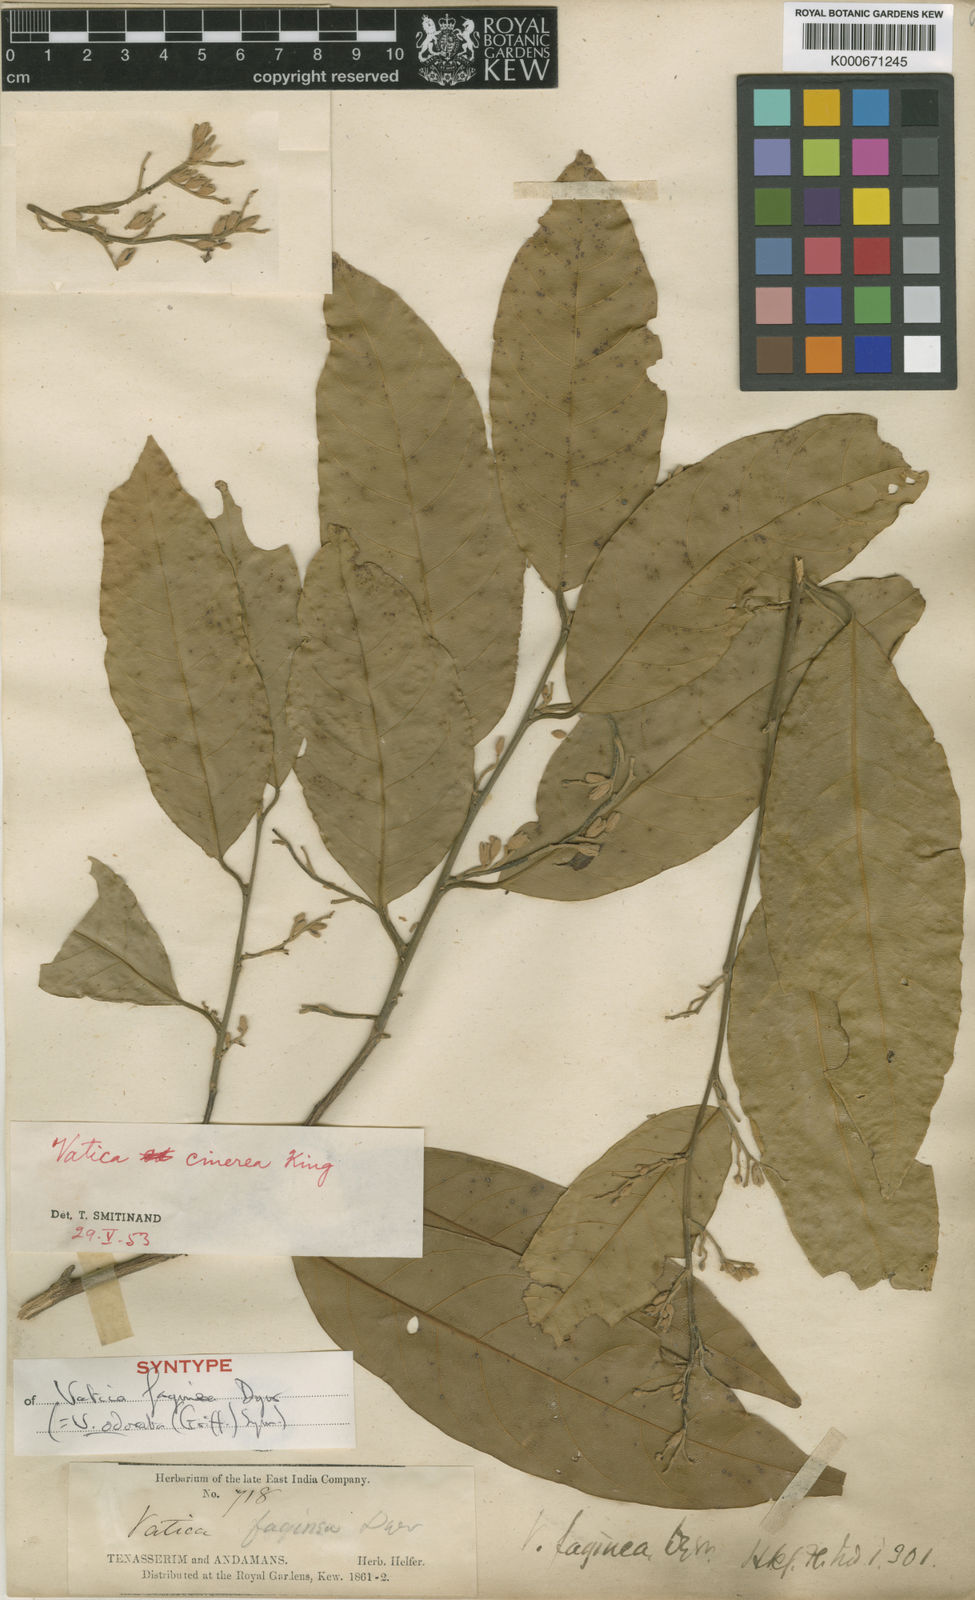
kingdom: Plantae
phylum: Tracheophyta
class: Magnoliopsida
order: Malvales
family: Dipterocarpaceae
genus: Vatica
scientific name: Vatica odorata
